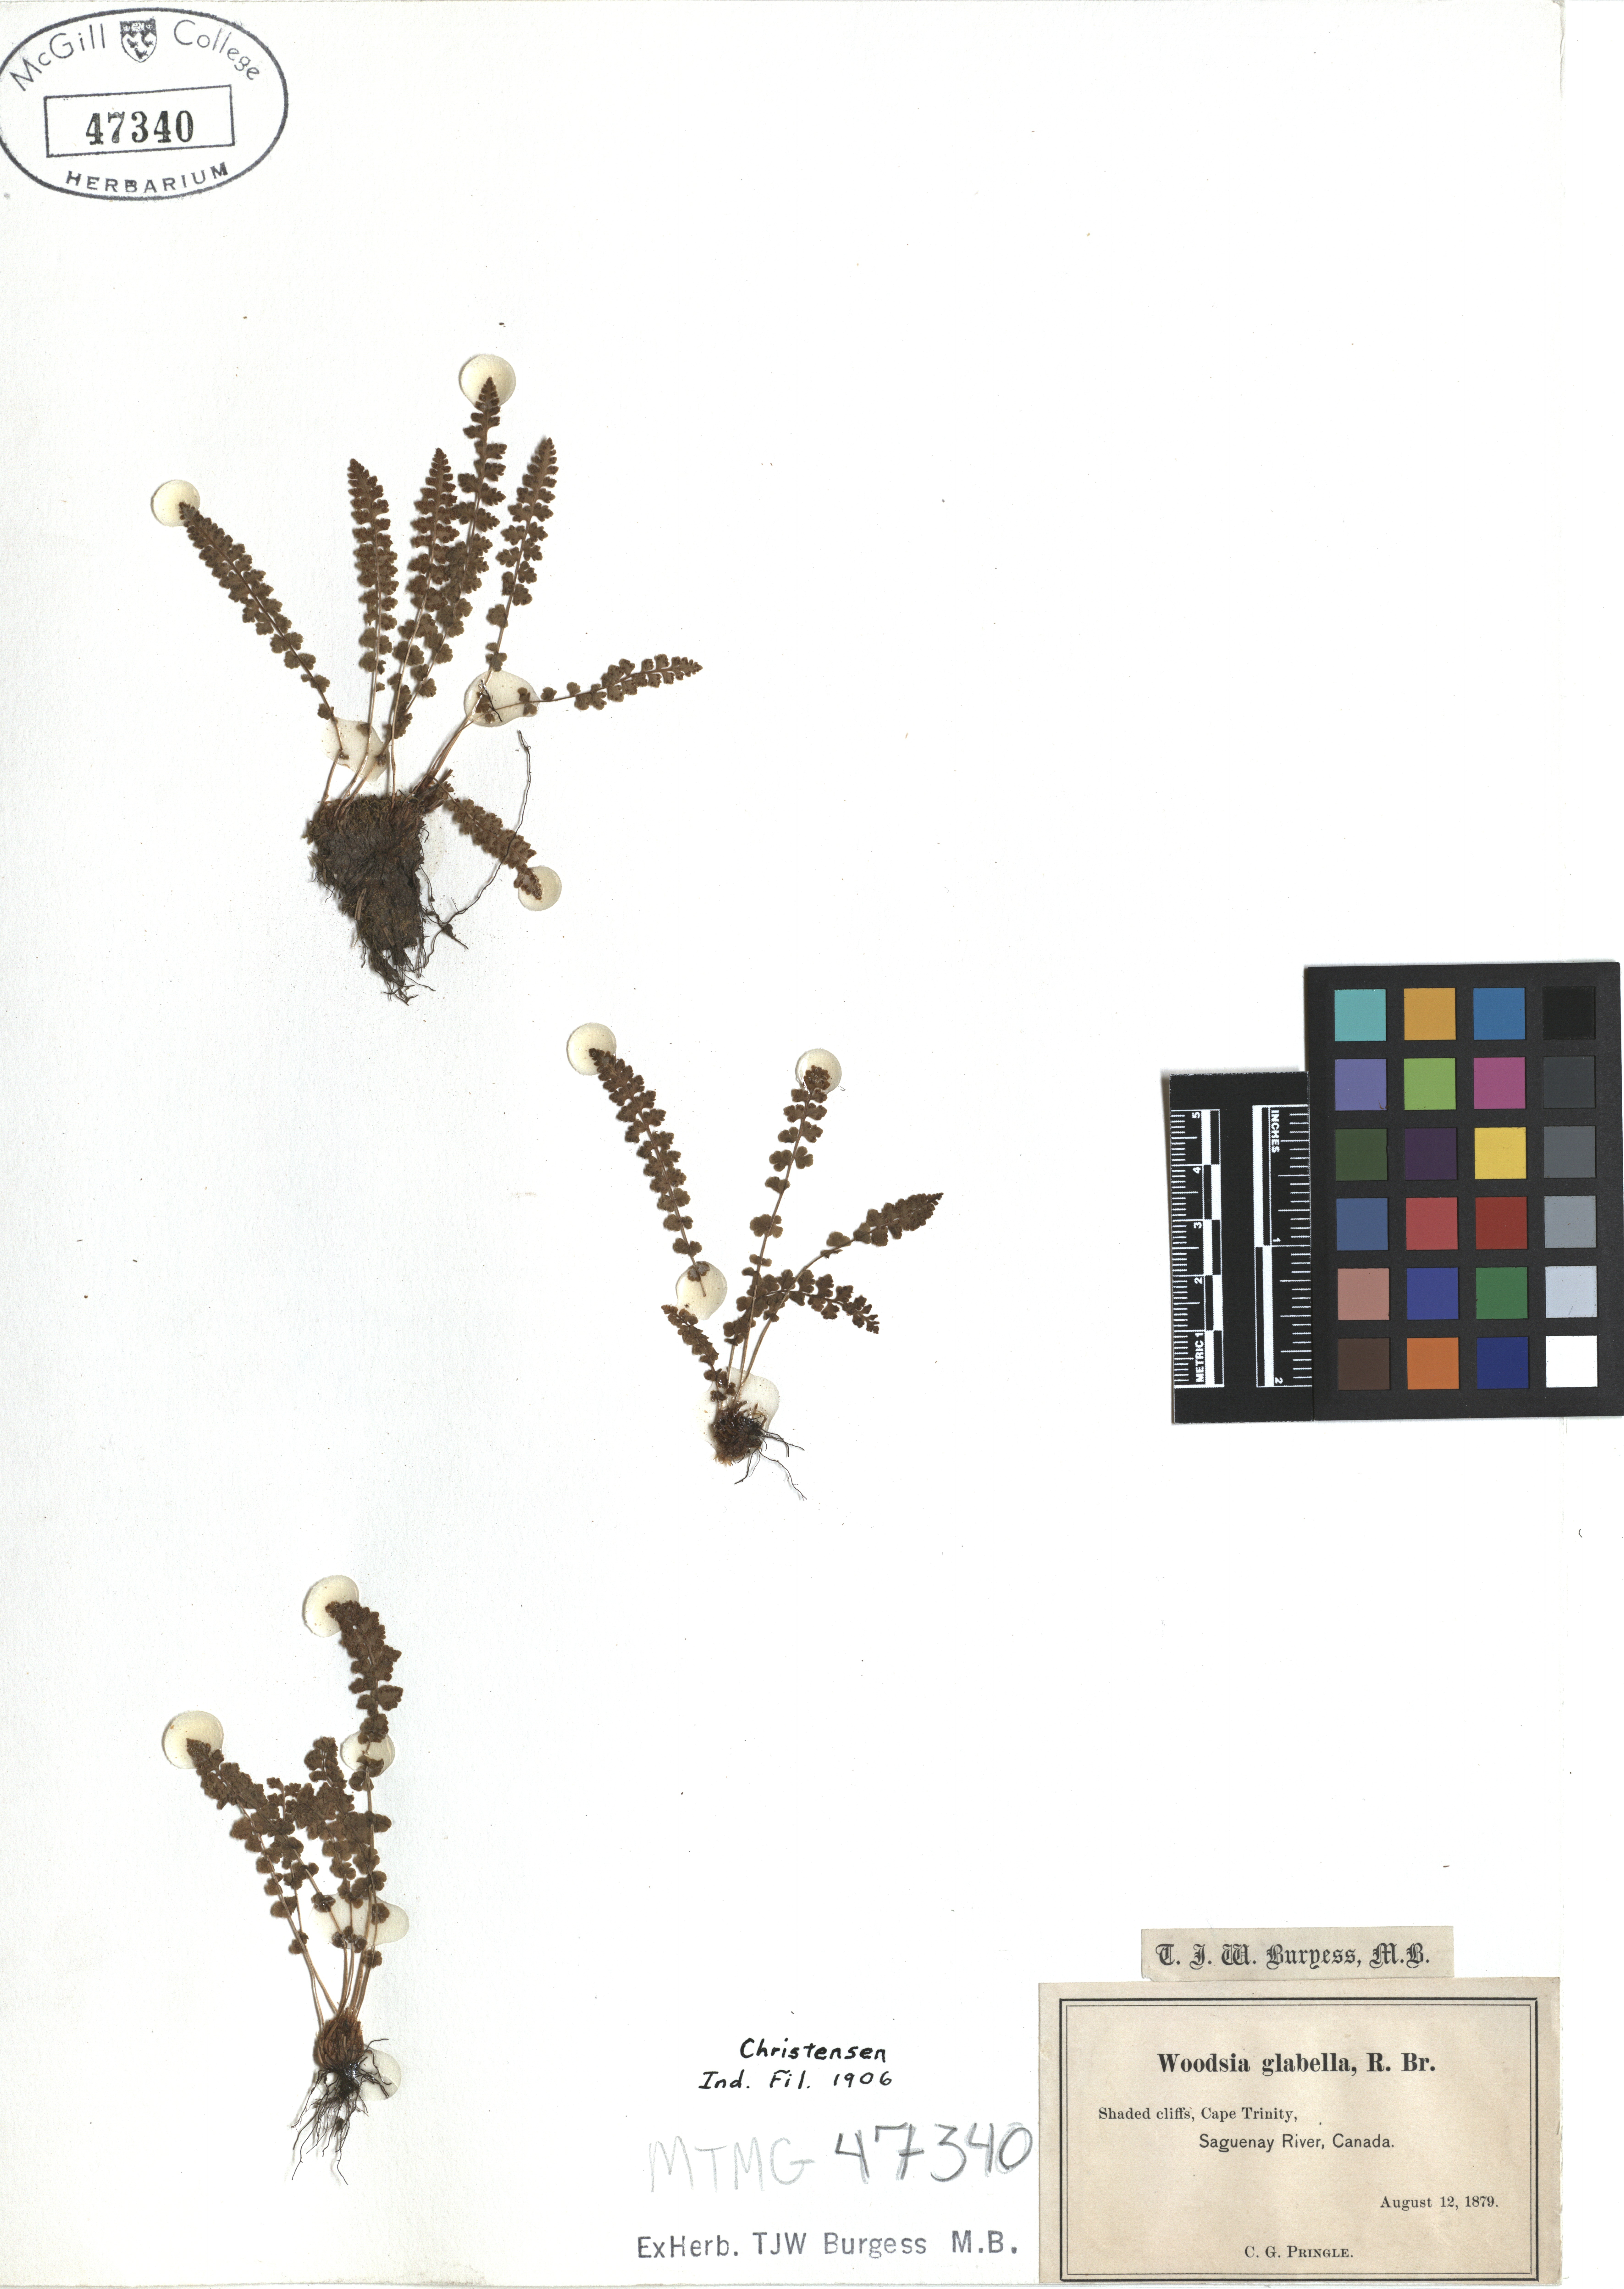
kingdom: Plantae
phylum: Tracheophyta
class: Polypodiopsida
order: Polypodiales
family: Woodsiaceae
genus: Woodsia
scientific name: Woodsia glabella
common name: Smooth woodsia
